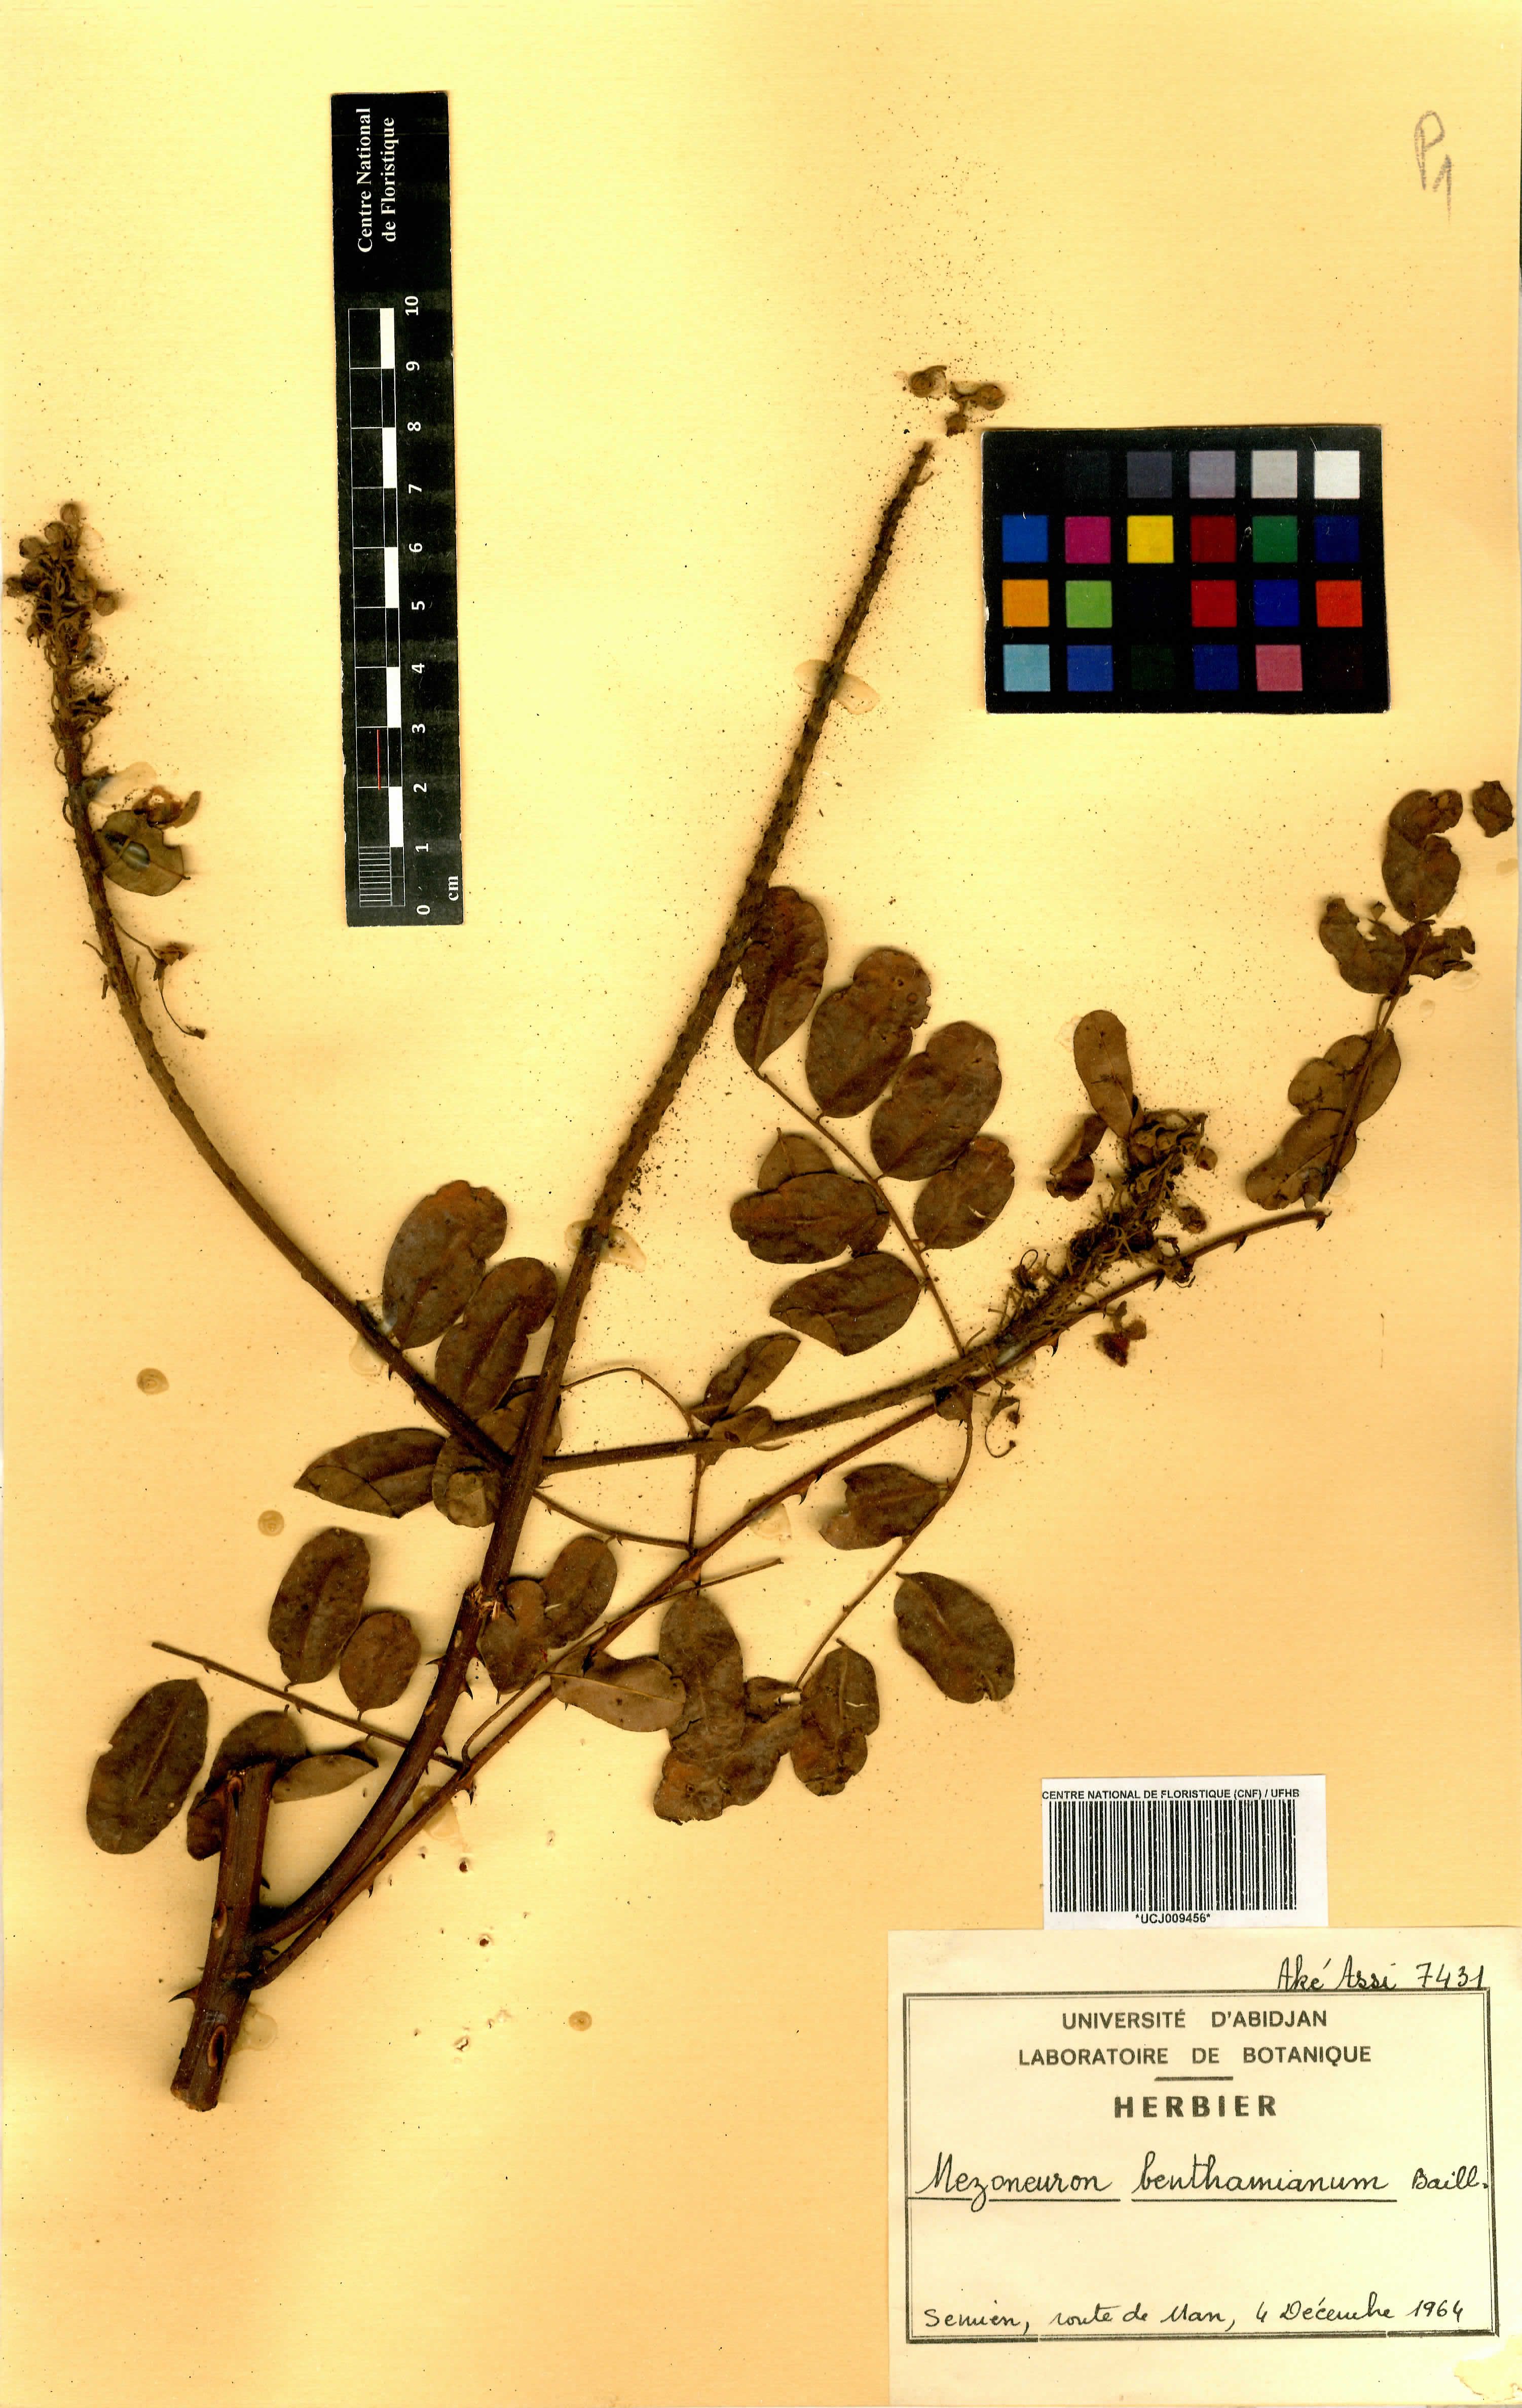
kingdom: Plantae
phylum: Tracheophyta
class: Magnoliopsida
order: Fabales
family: Fabaceae
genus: Mezoneuron
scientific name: Mezoneuron benthamianum
